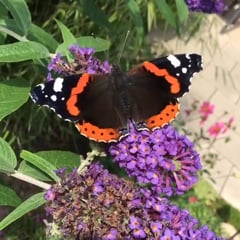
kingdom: Animalia
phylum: Arthropoda
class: Insecta
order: Lepidoptera
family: Nymphalidae
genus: Vanessa
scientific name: Vanessa atalanta
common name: Red admiral
